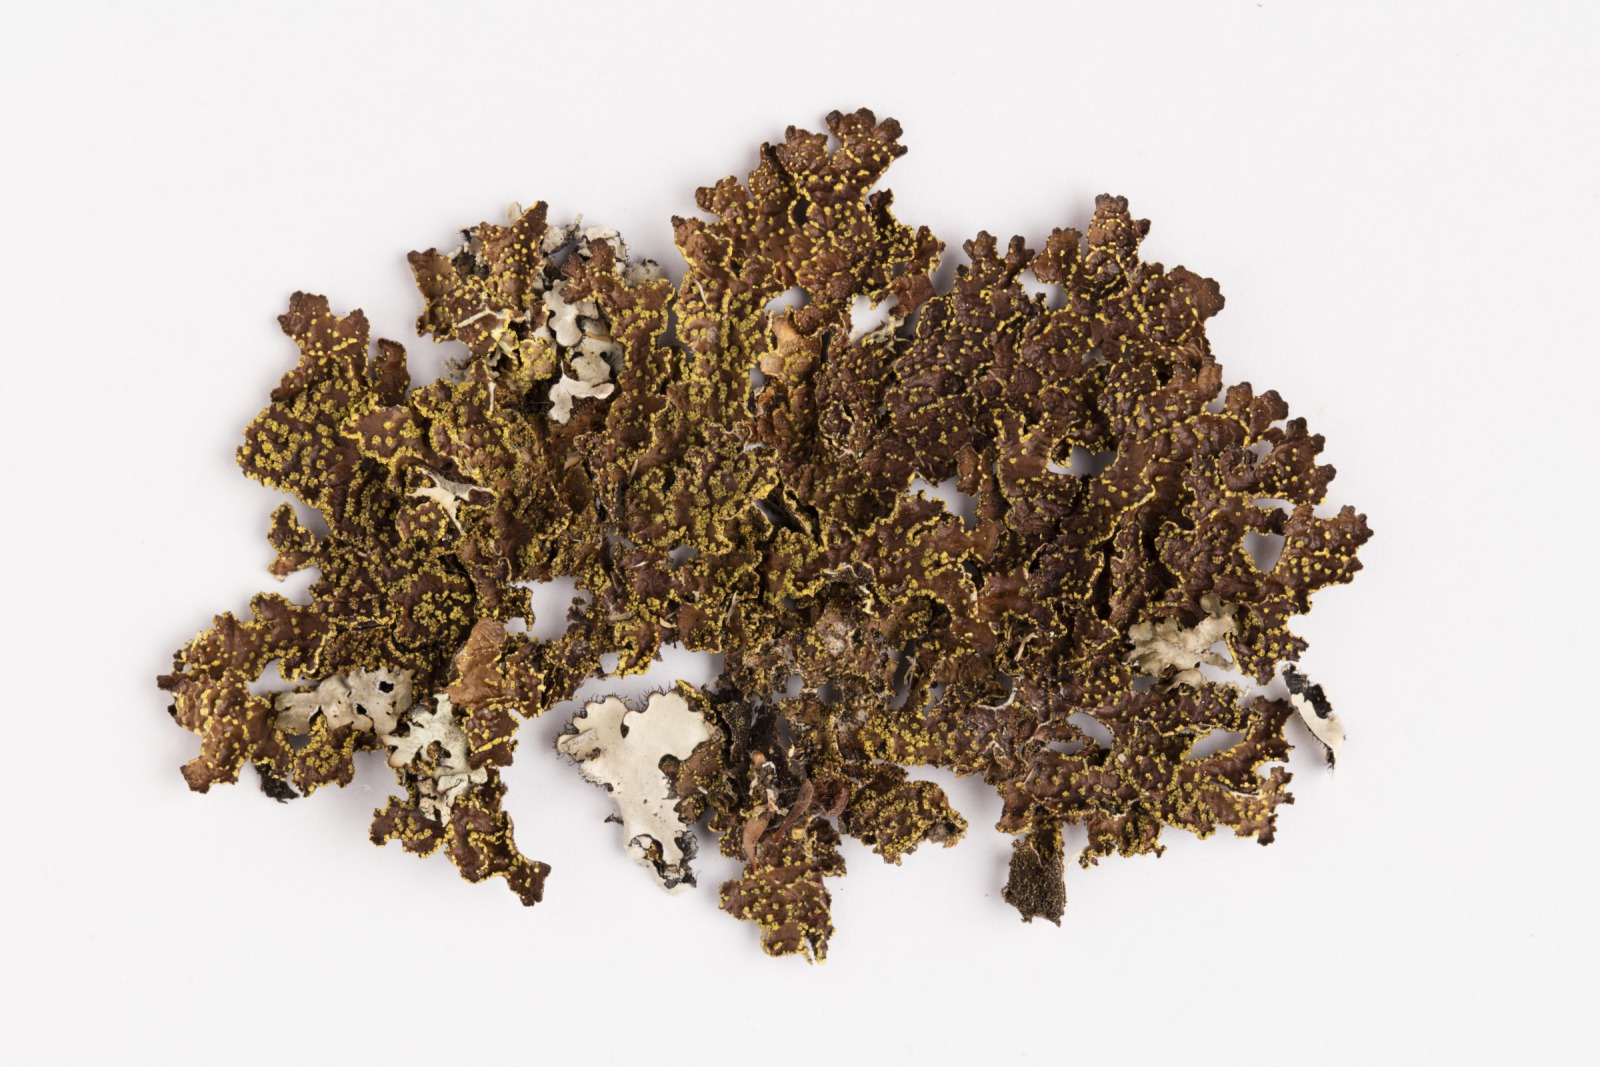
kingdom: Fungi
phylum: Ascomycota
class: Lecanoromycetes
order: Peltigerales
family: Lobariaceae
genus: Pseudocyphellaria
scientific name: Pseudocyphellaria crocata
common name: Golden specklebelly
